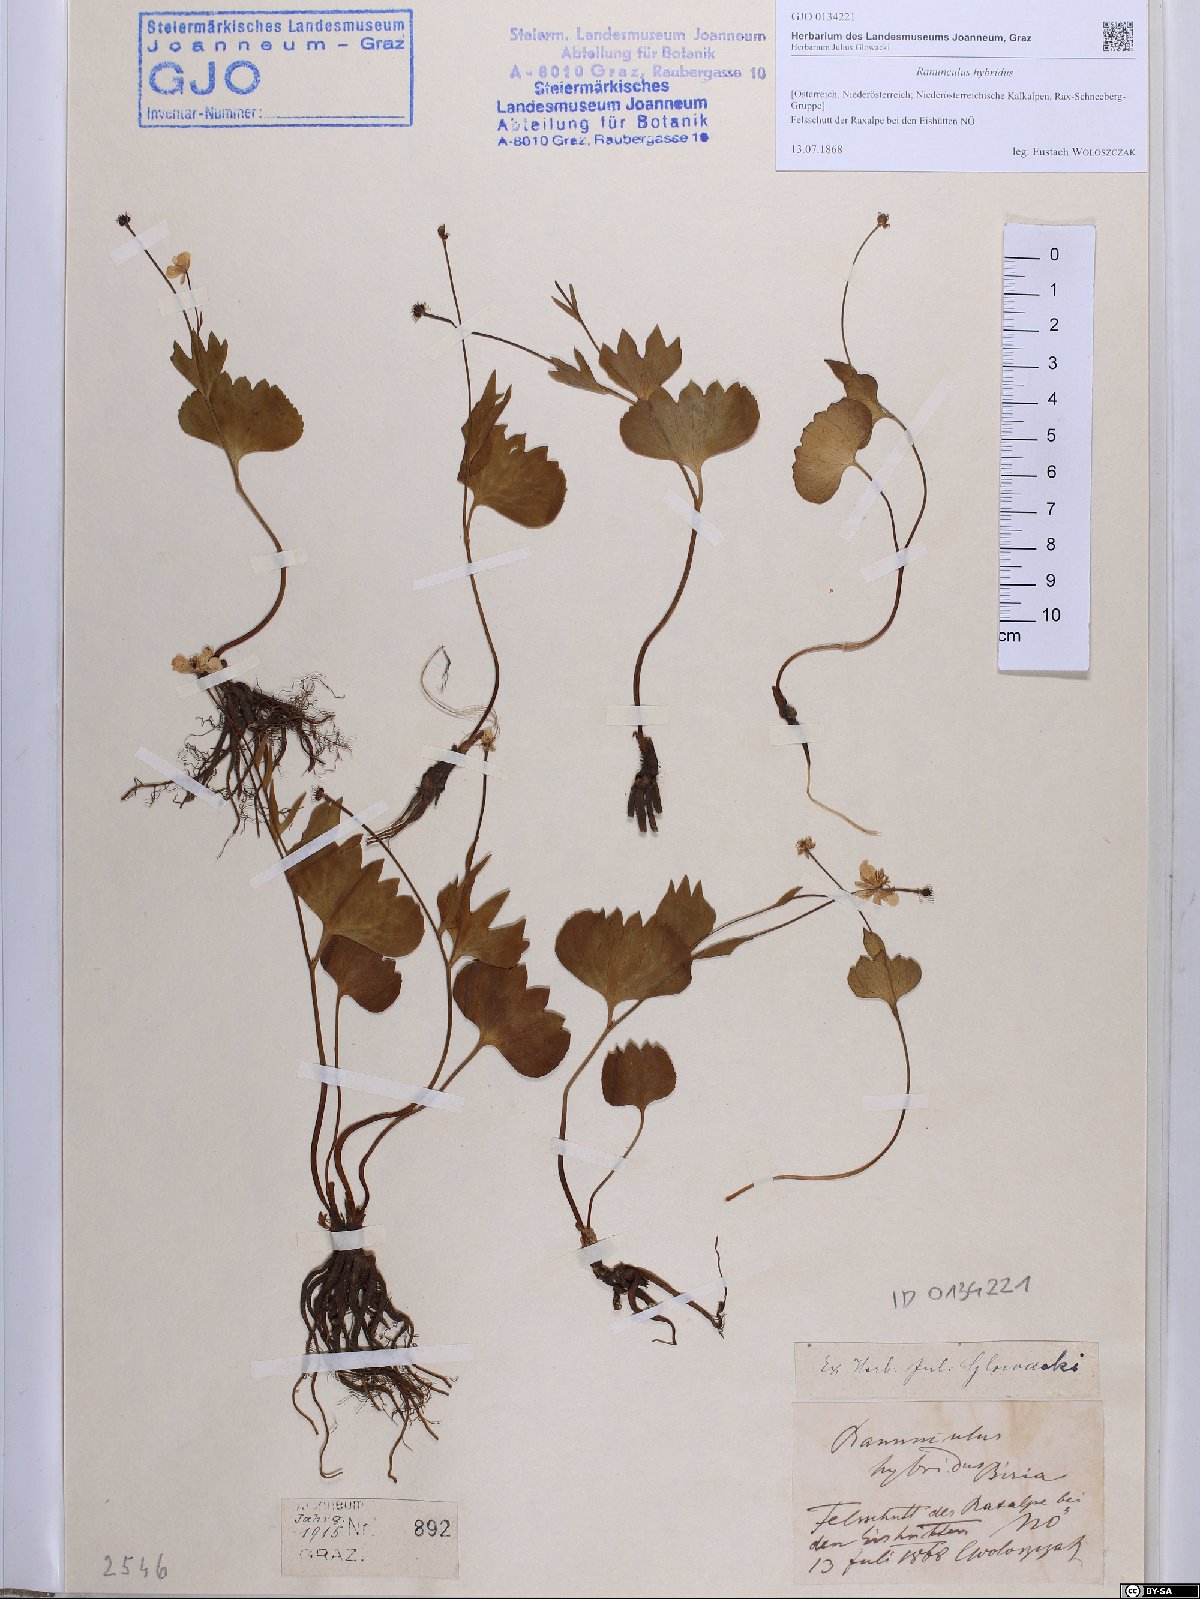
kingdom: Plantae
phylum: Tracheophyta
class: Magnoliopsida
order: Ranunculales
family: Ranunculaceae
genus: Ranunculus
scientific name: Ranunculus hybridus
